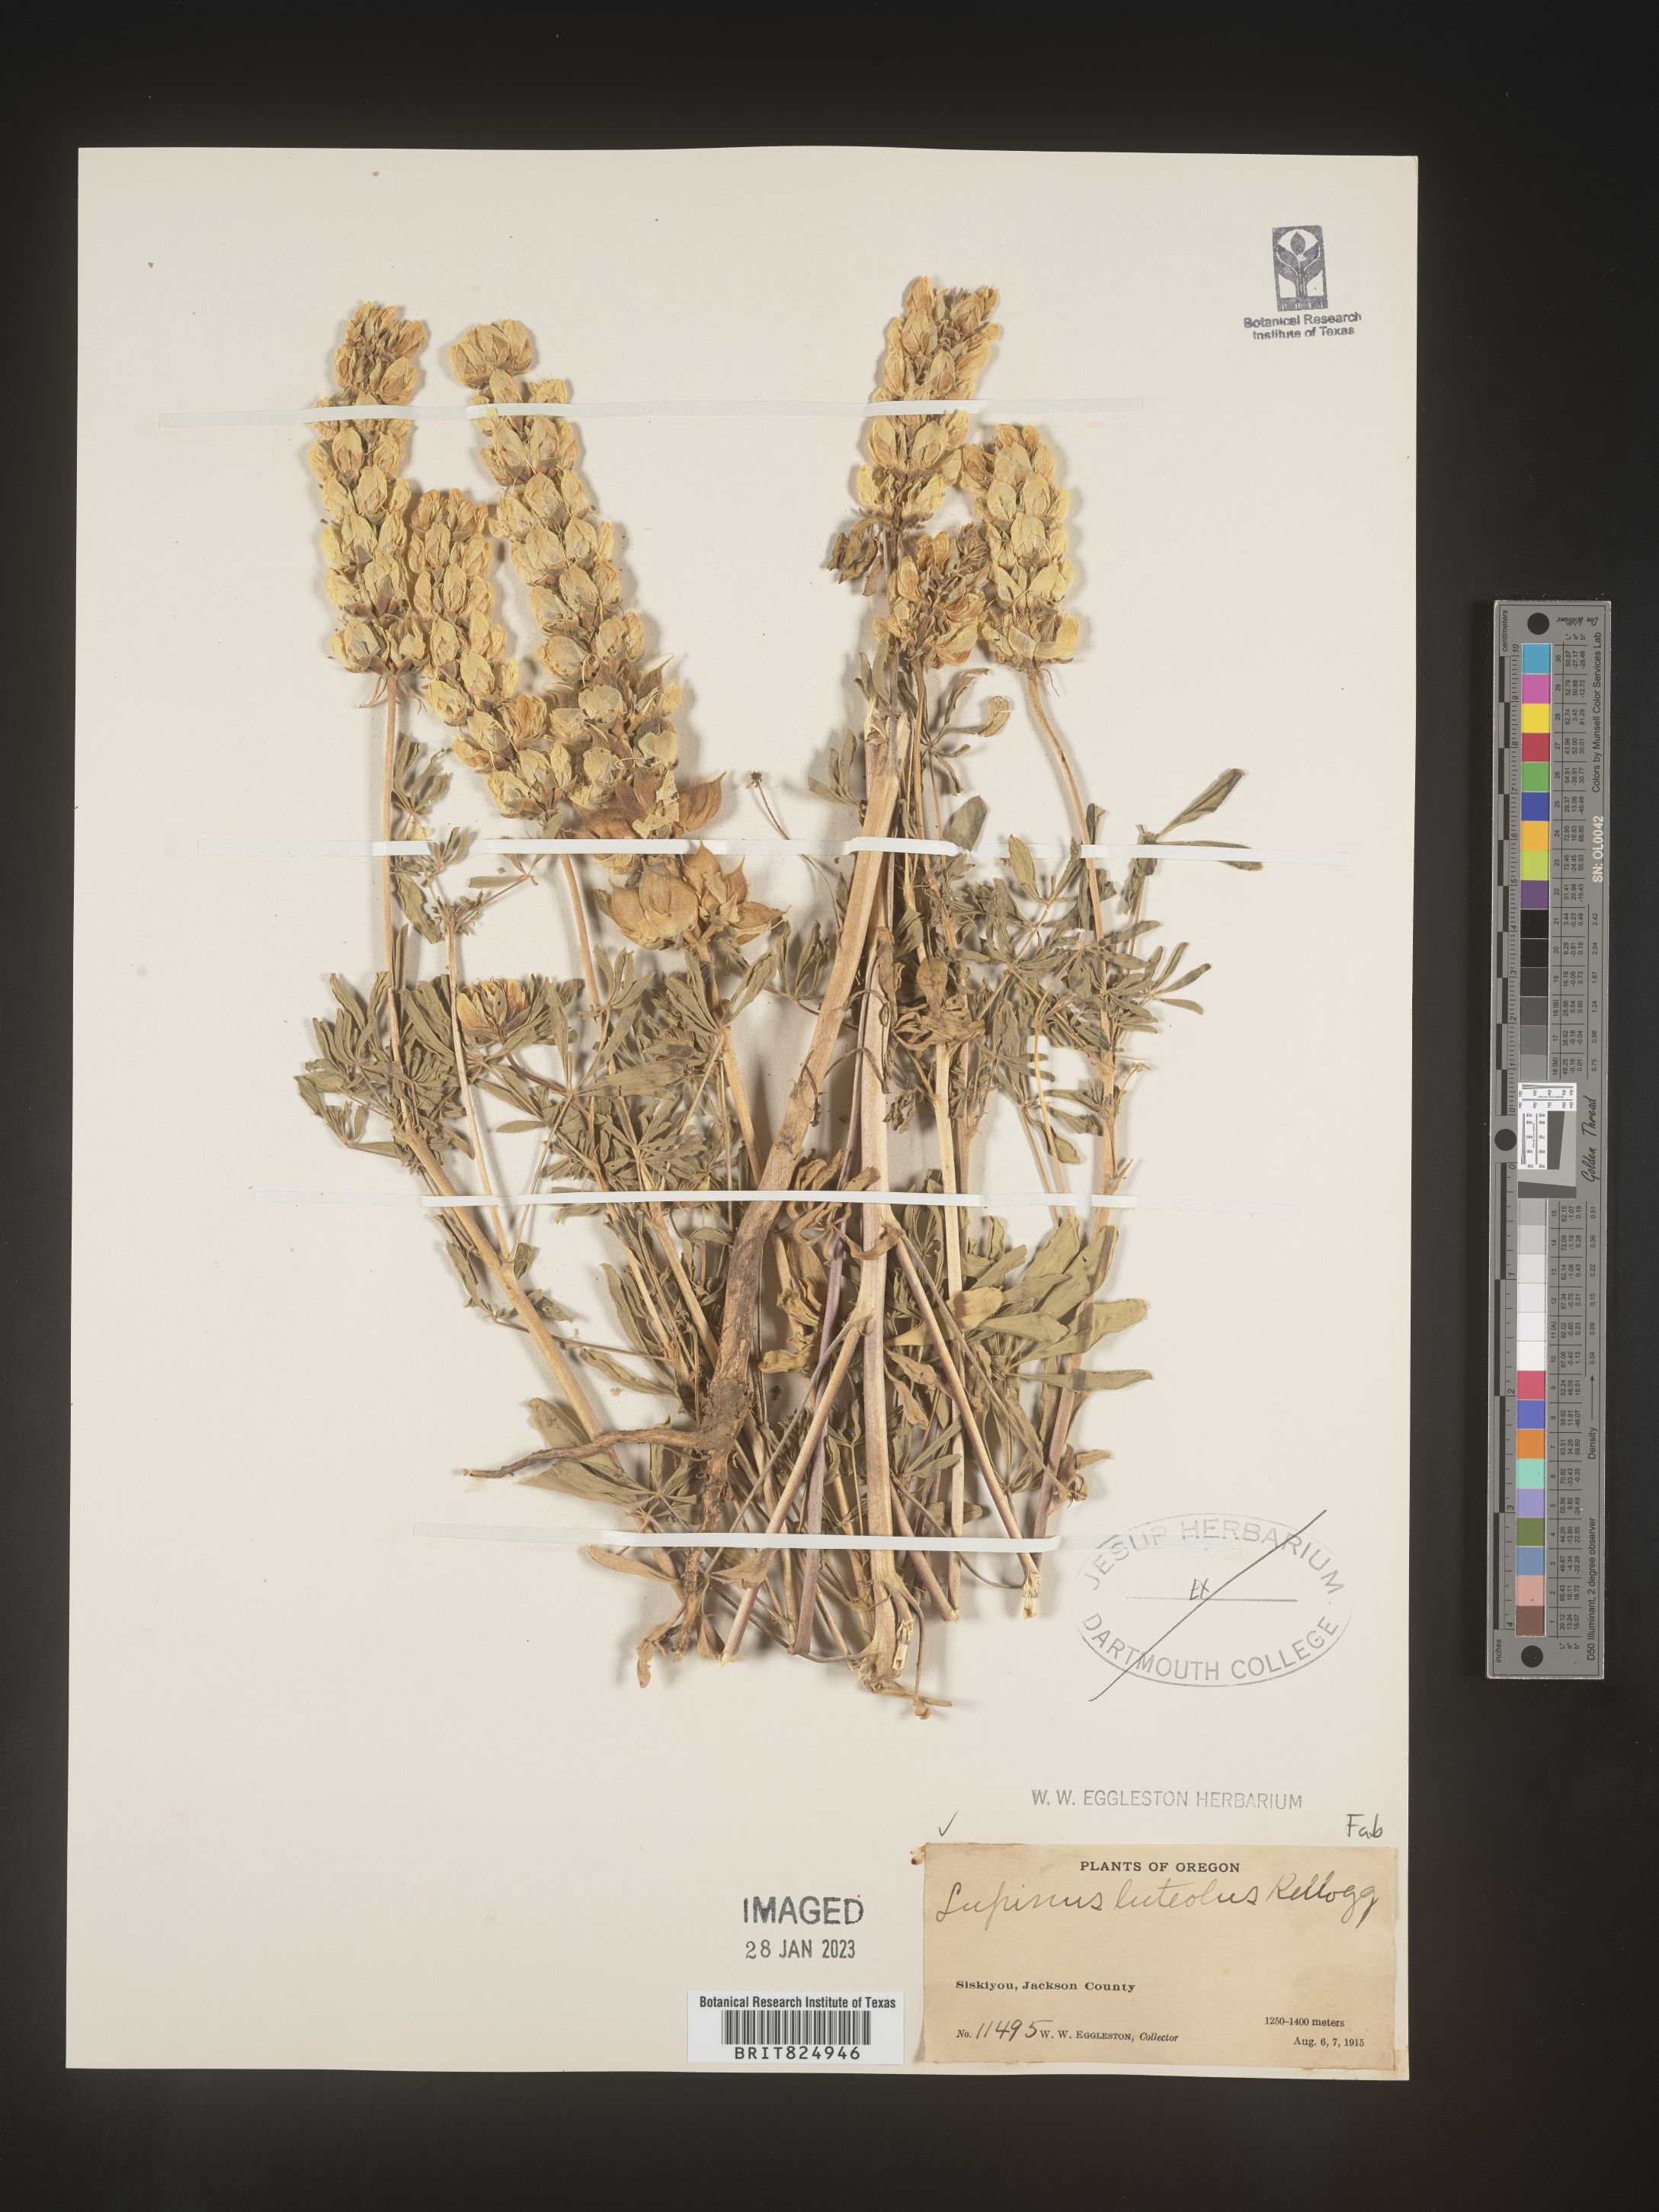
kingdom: Plantae
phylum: Tracheophyta
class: Magnoliopsida
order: Fabales
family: Fabaceae
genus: Lupinus
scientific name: Lupinus
